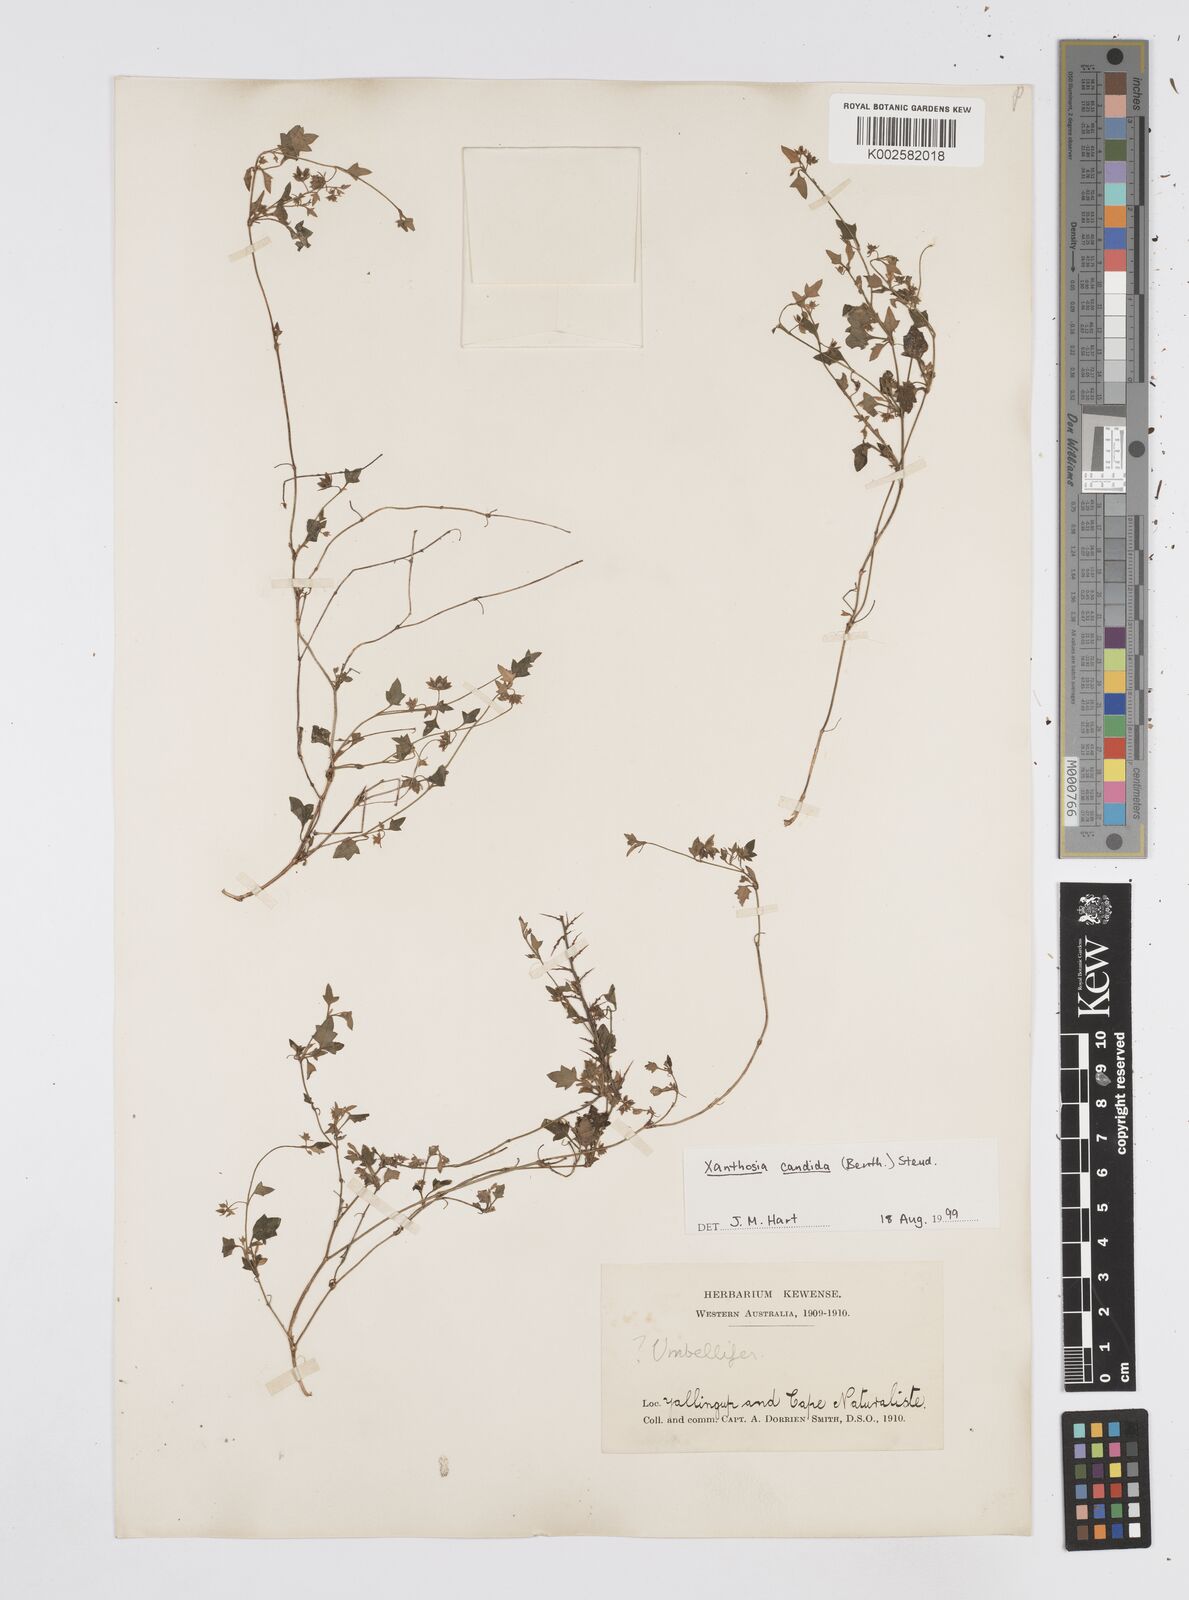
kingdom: Plantae
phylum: Tracheophyta
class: Magnoliopsida
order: Apiales
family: Apiaceae
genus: Xanthosia
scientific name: Xanthosia candida
